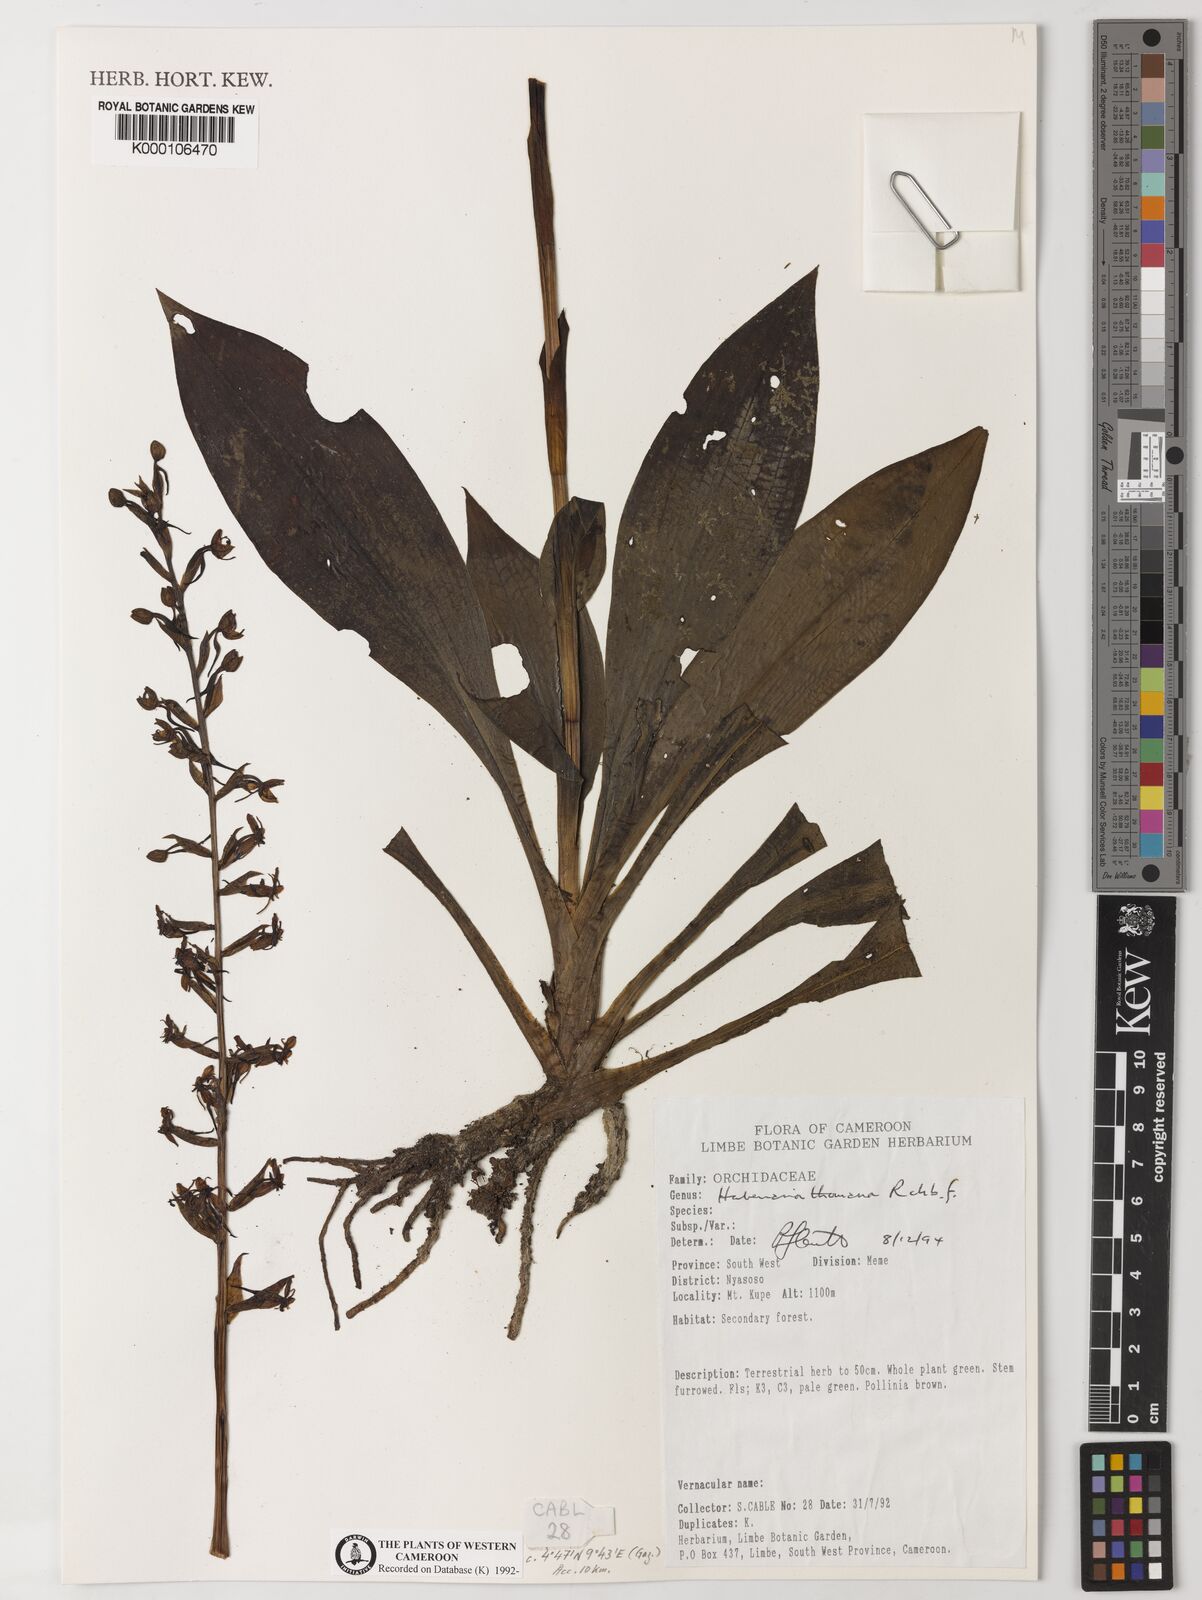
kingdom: Plantae
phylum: Tracheophyta
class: Liliopsida
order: Asparagales
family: Orchidaceae
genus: Habenaria
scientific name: Habenaria thomana
